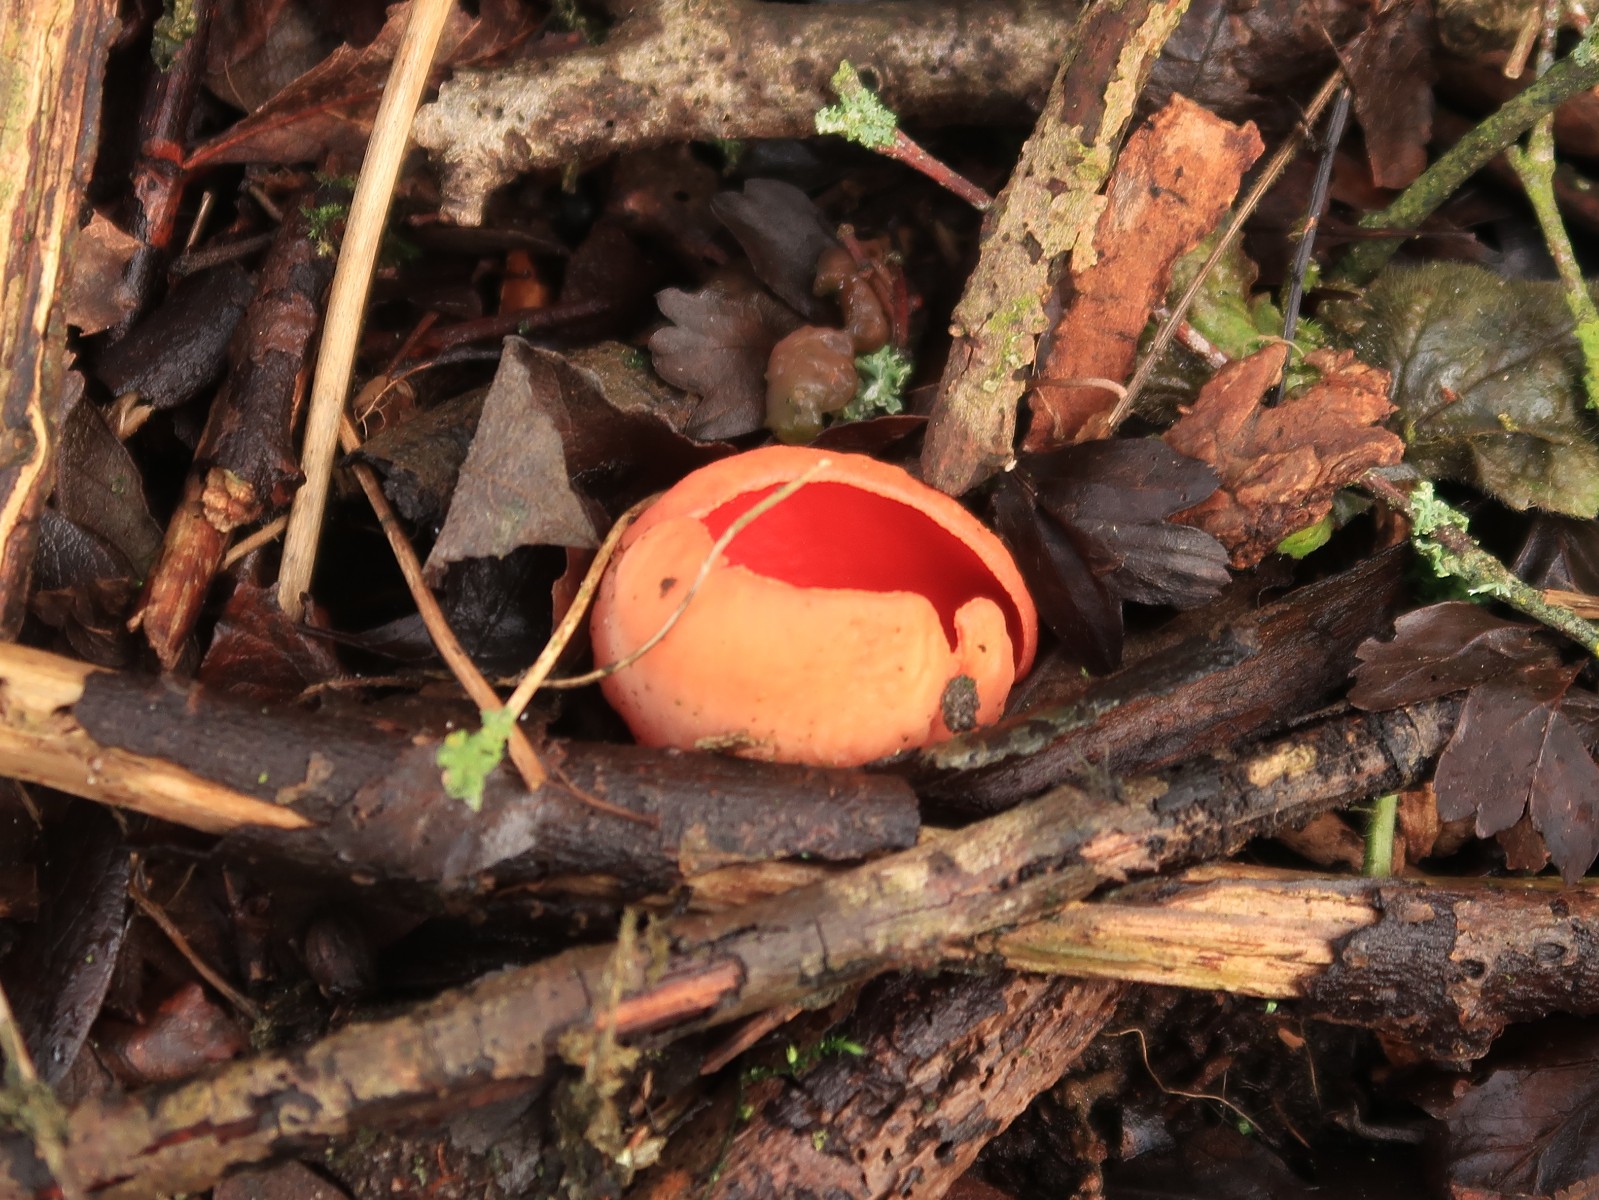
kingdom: Fungi
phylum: Ascomycota
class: Pezizomycetes
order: Pezizales
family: Sarcoscyphaceae
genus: Sarcoscypha
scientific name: Sarcoscypha austriaca
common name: krølhåret pragtbæger
